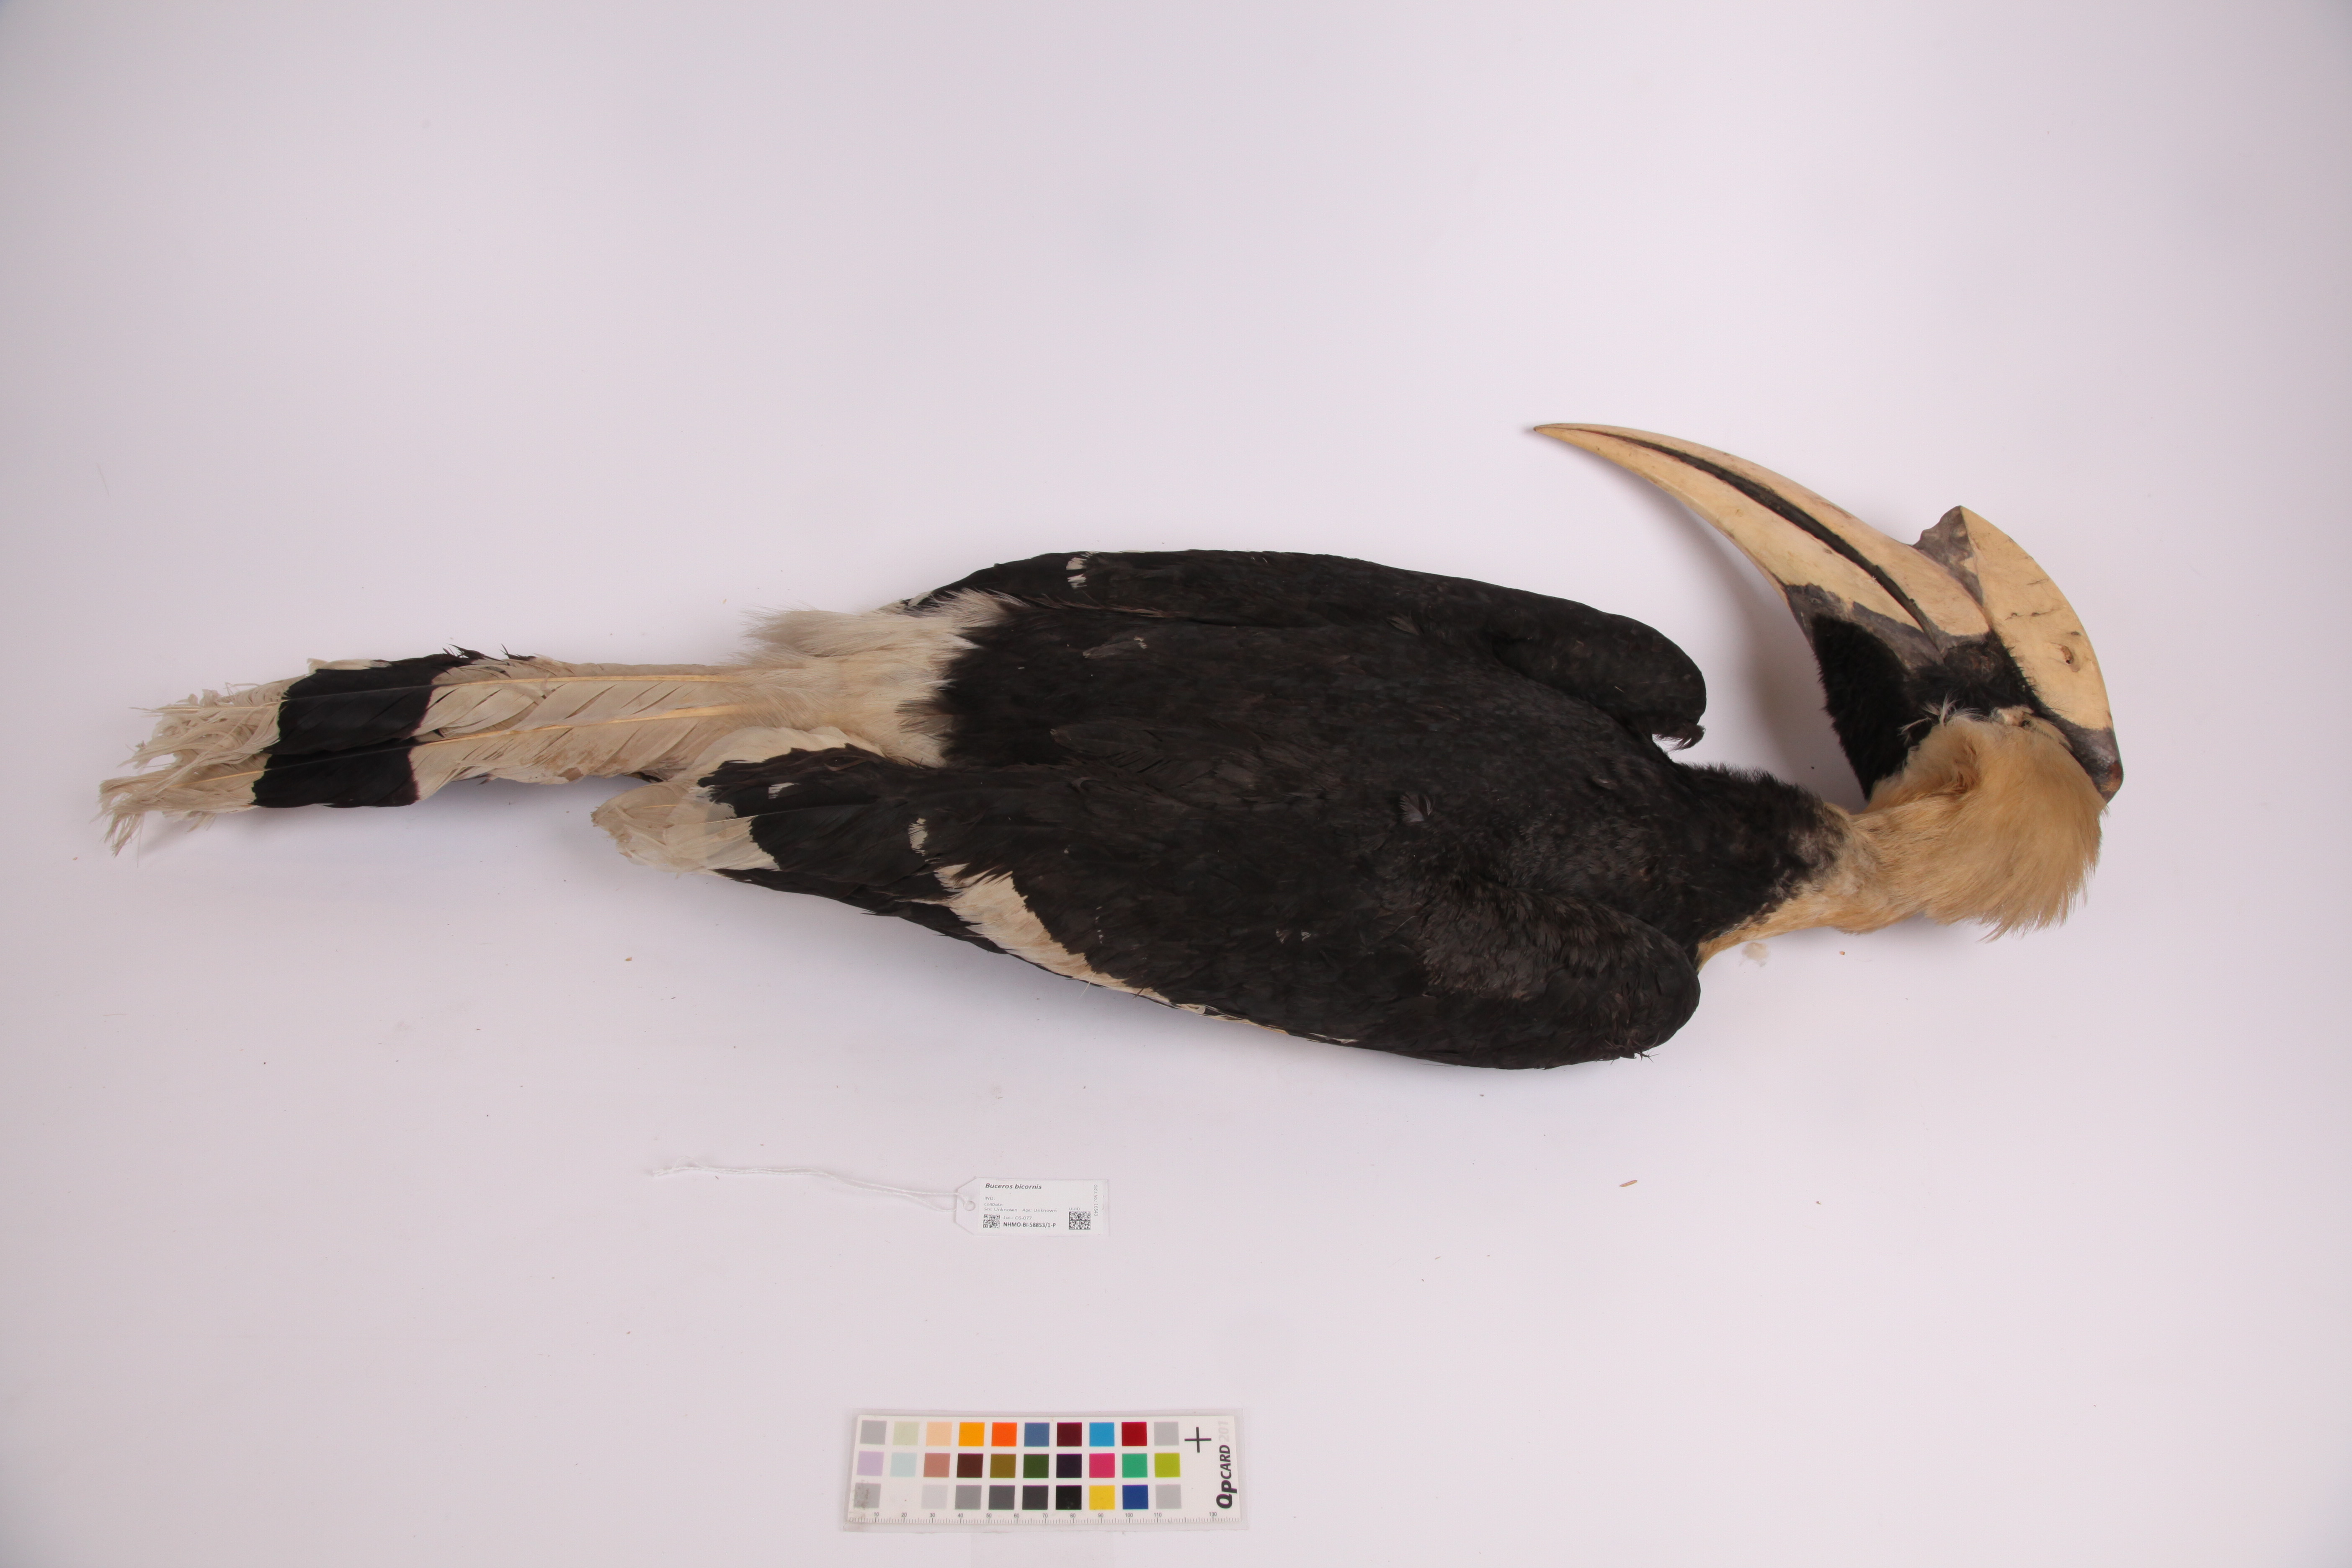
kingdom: Animalia
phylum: Chordata
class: Aves
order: Bucerotiformes
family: Bucerotidae
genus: Buceros
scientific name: Buceros bicornis
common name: Great hornbill
